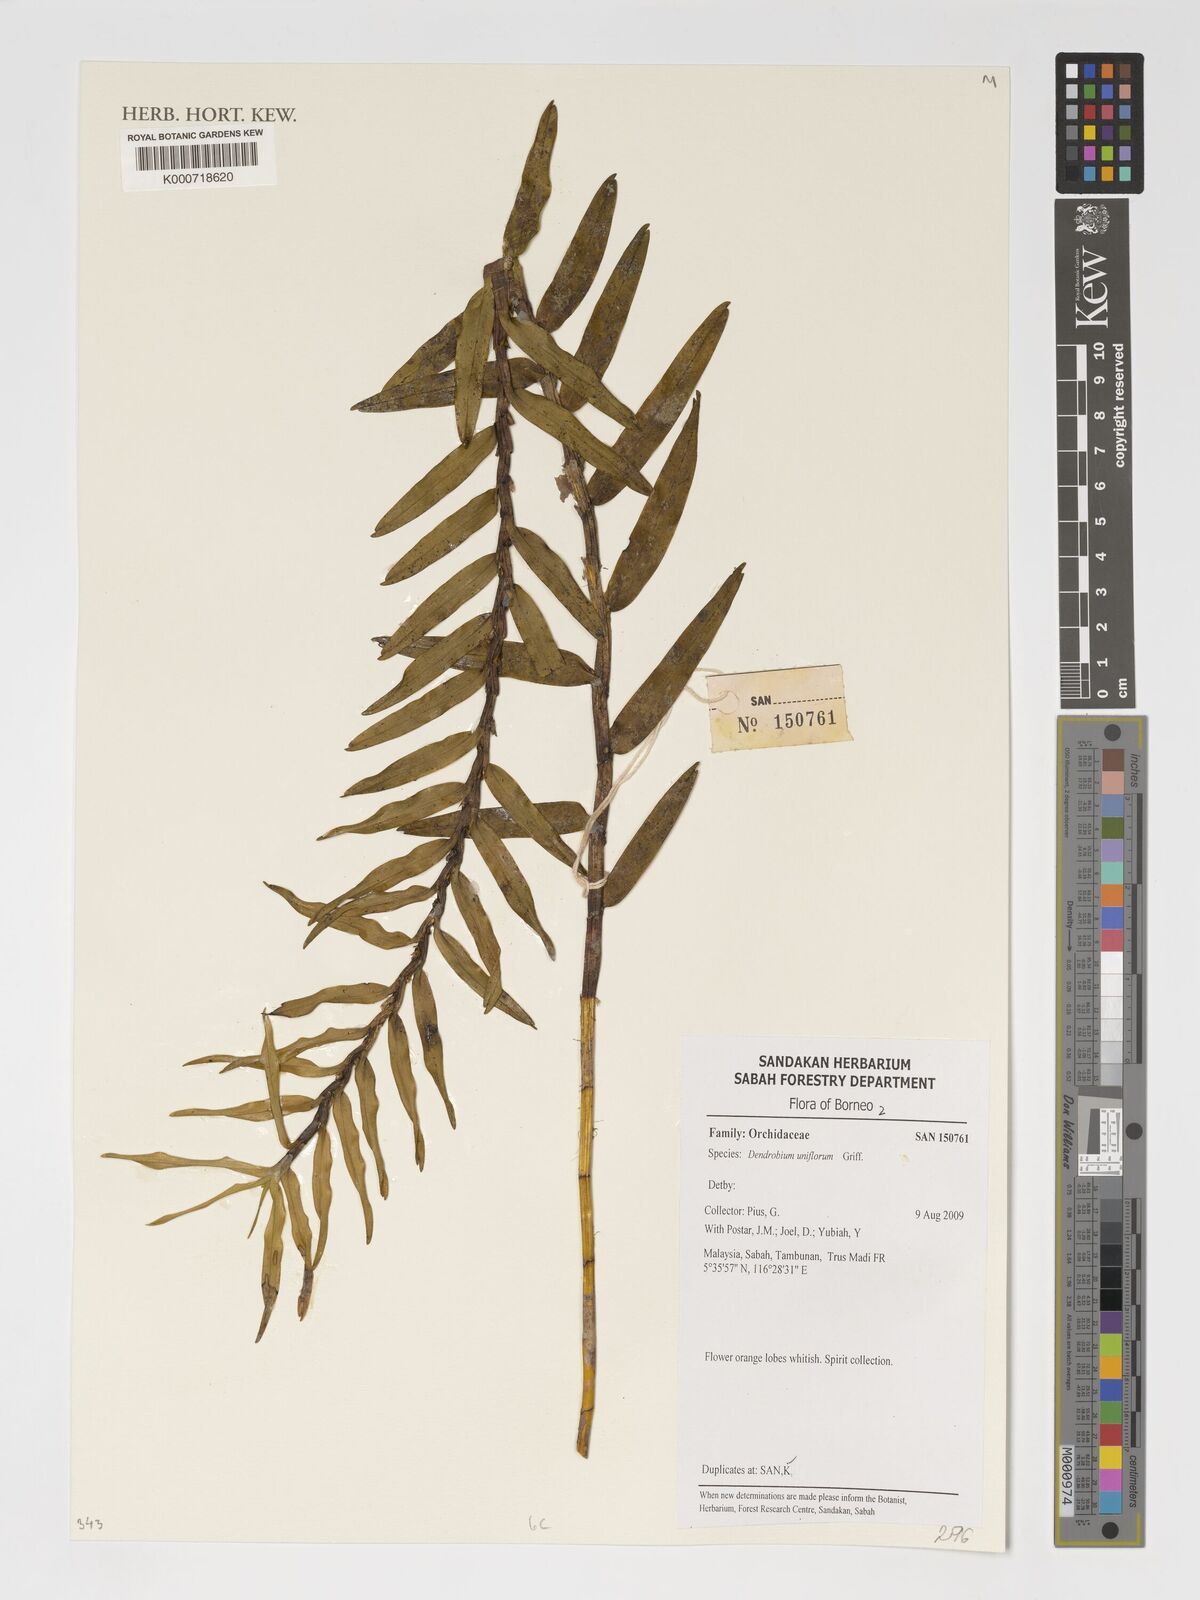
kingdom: Plantae
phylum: Tracheophyta
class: Liliopsida
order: Asparagales
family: Orchidaceae
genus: Dendrobium
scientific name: Dendrobium uniflorum
